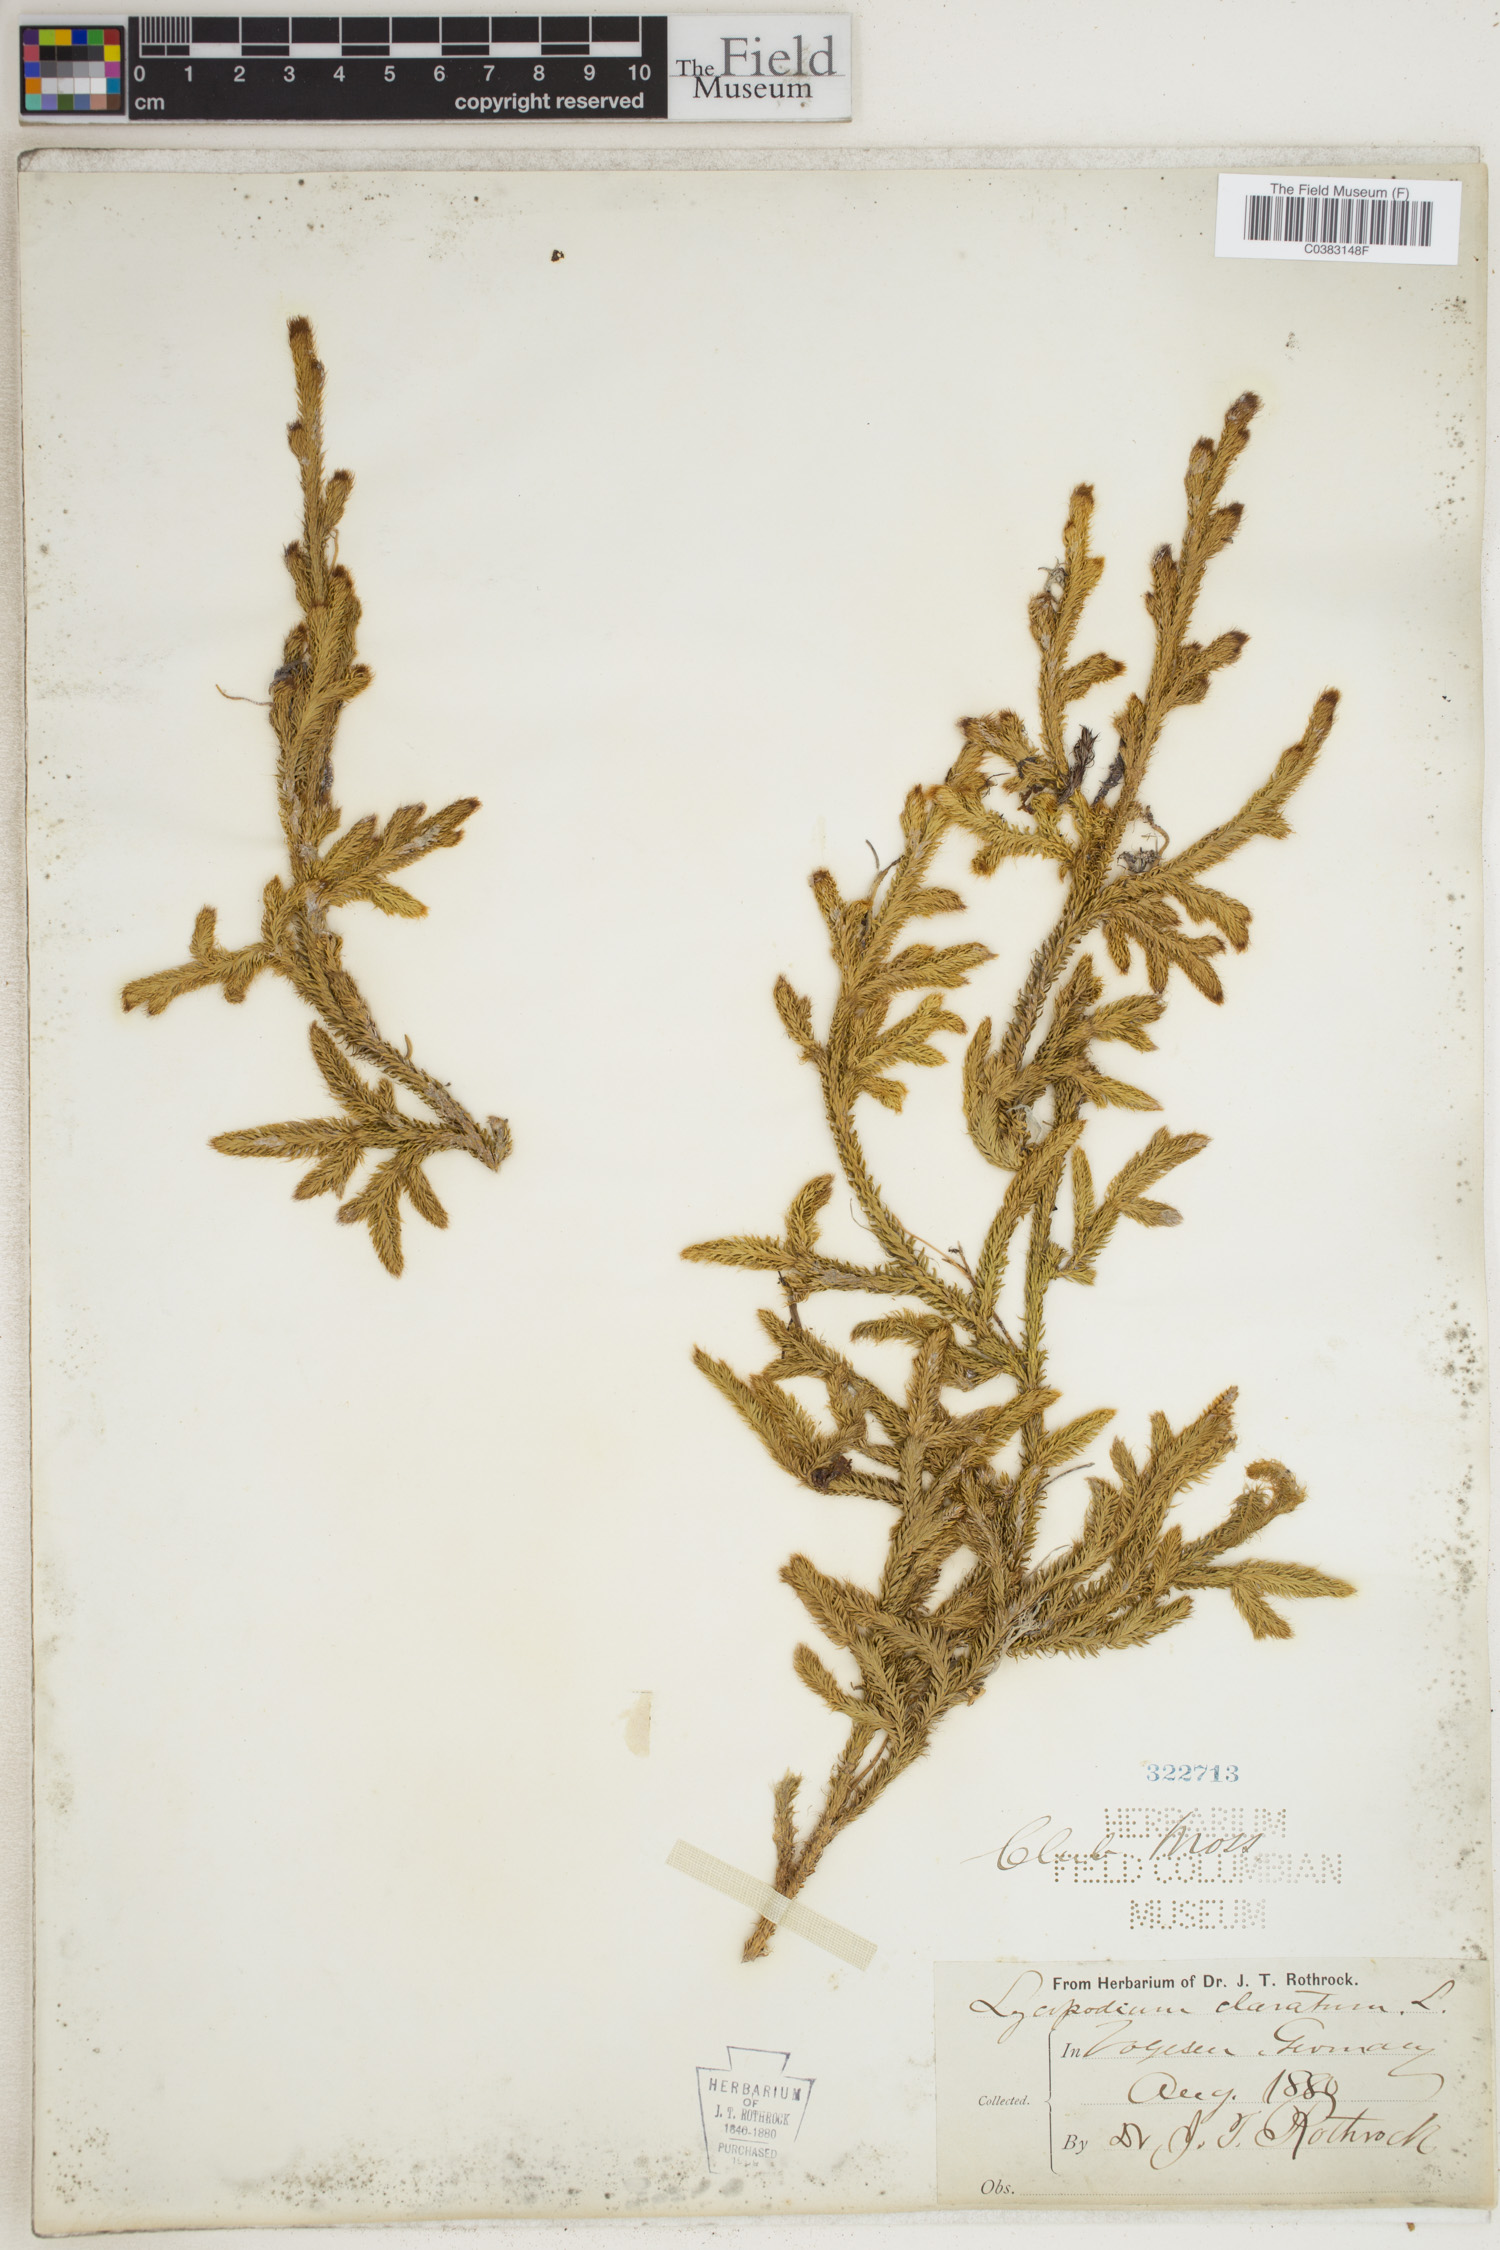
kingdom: Plantae
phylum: Tracheophyta
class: Lycopodiopsida
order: Lycopodiales
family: Lycopodiaceae
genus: Lycopodium
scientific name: Lycopodium clavatum
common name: Stag's-horn clubmoss
